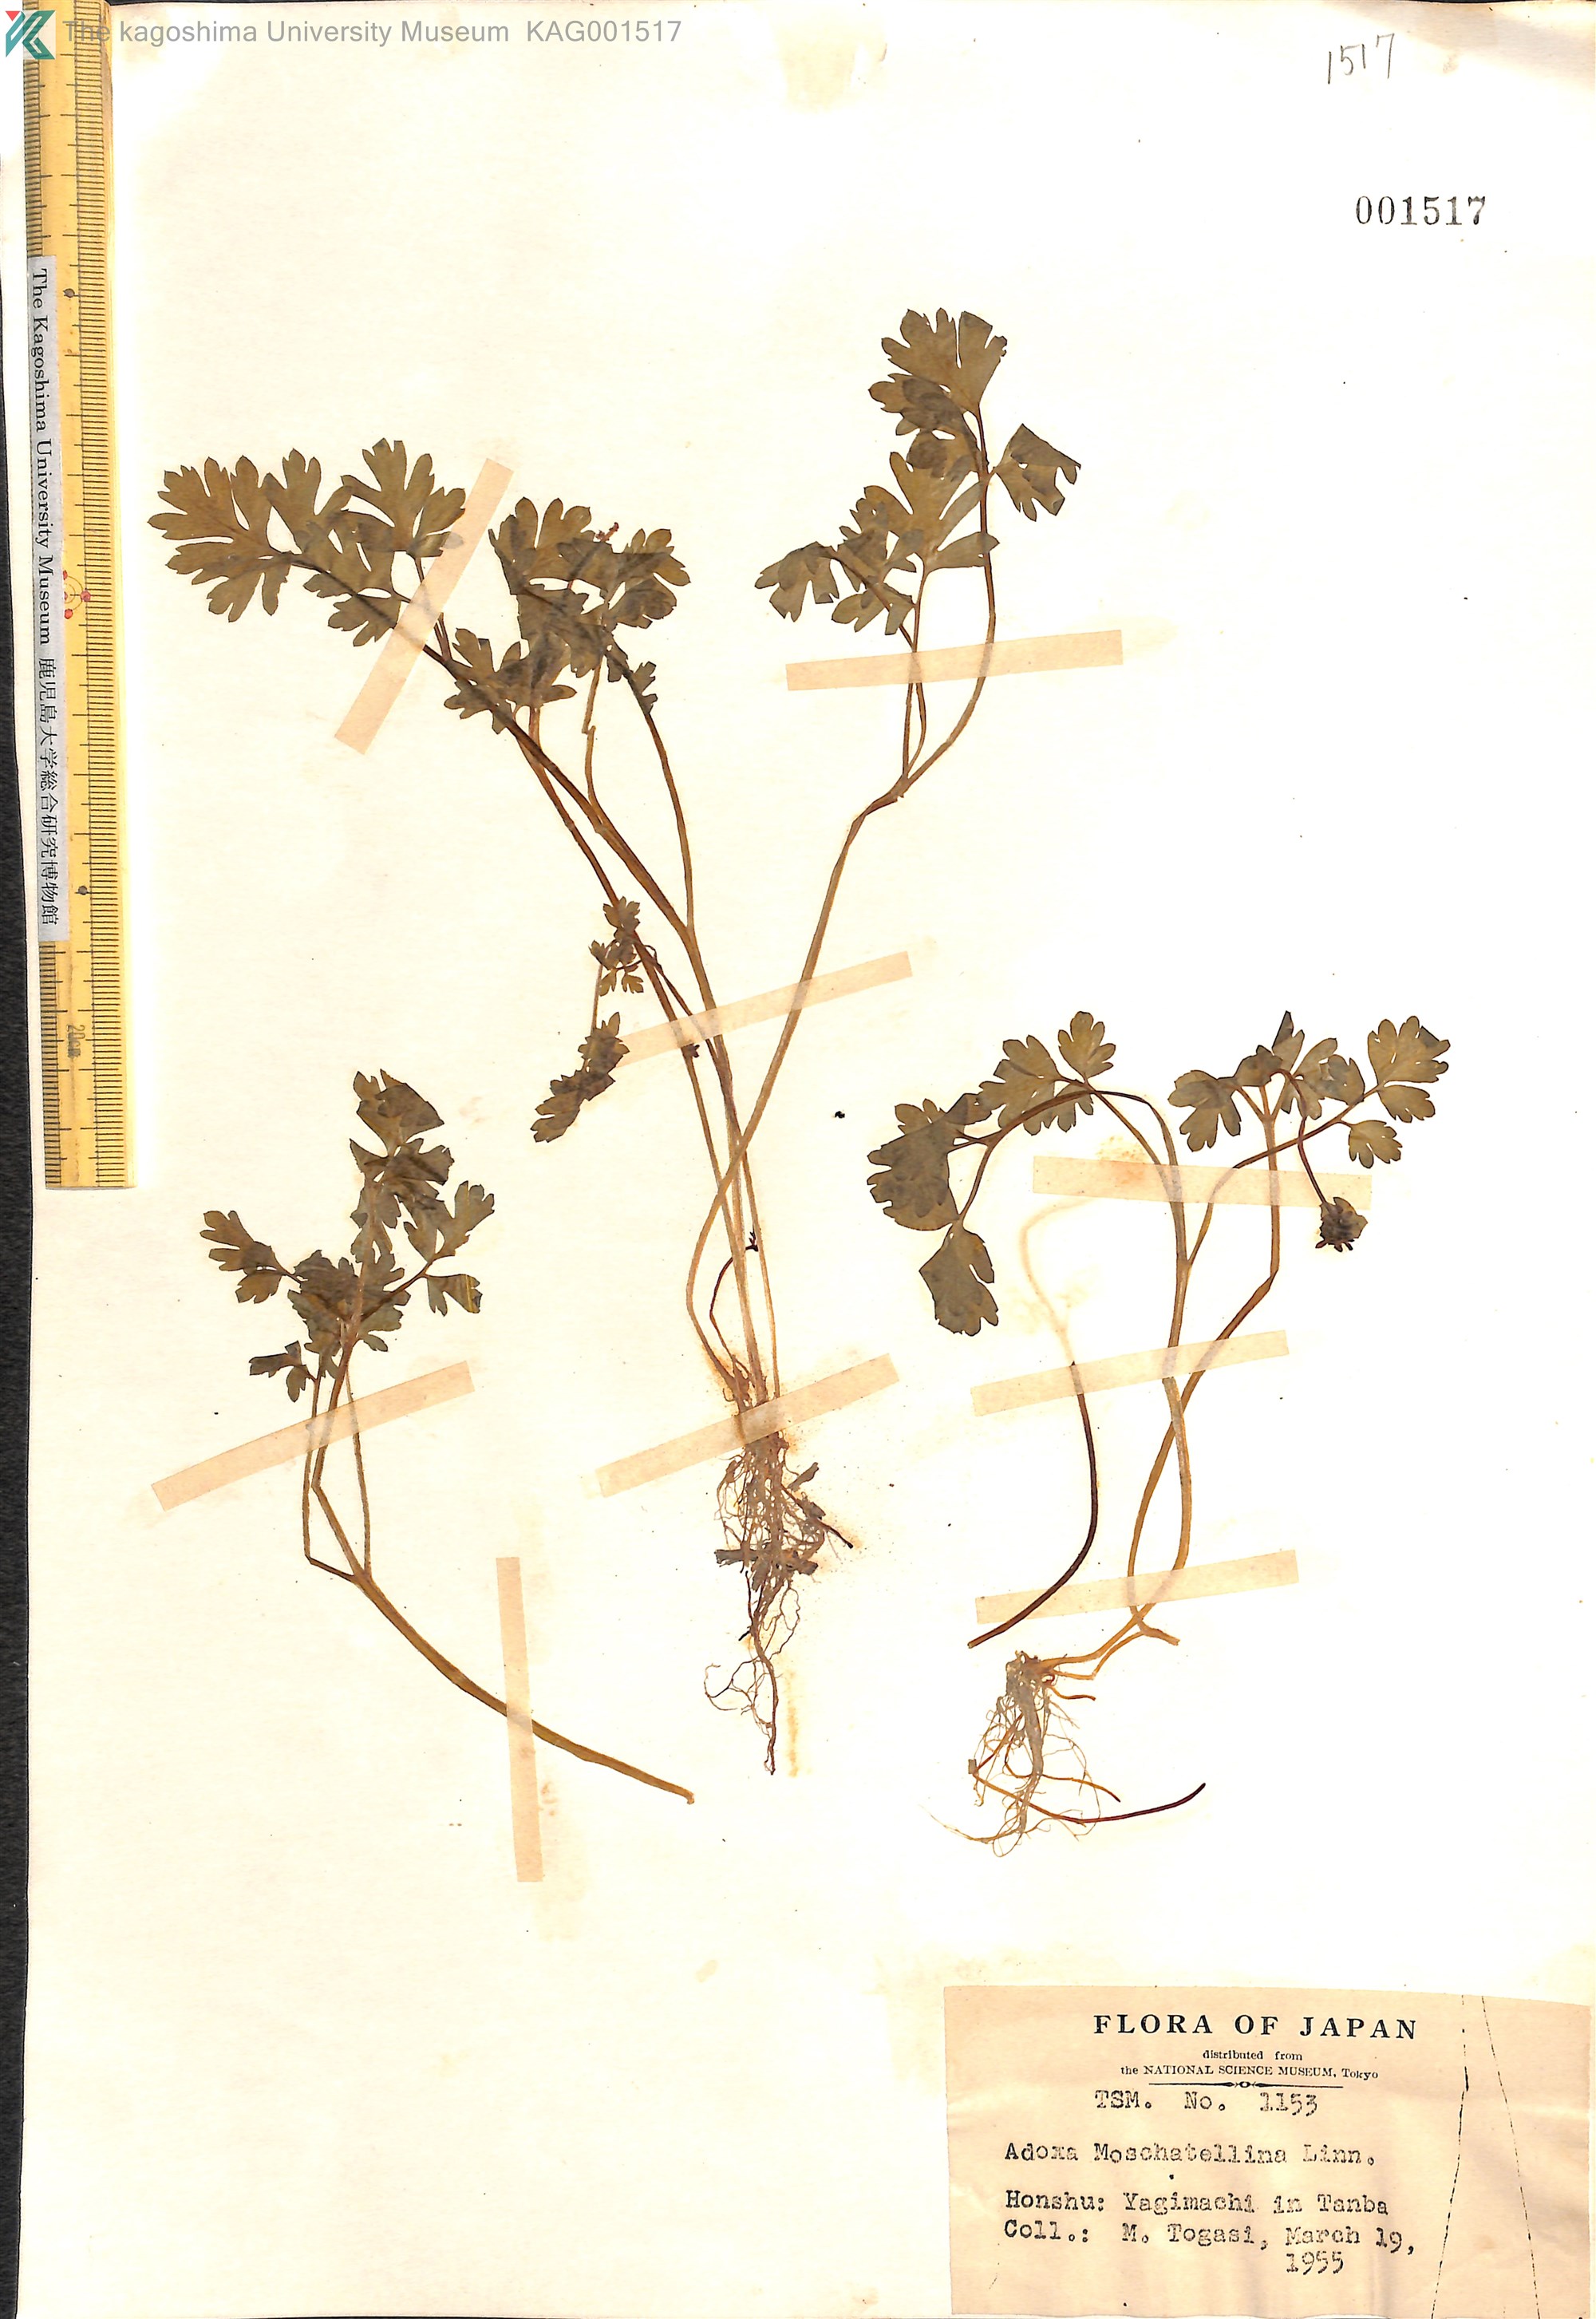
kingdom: Plantae
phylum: Tracheophyta
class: Magnoliopsida
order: Dipsacales
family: Viburnaceae
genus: Adoxa
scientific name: Adoxa moschatellina
